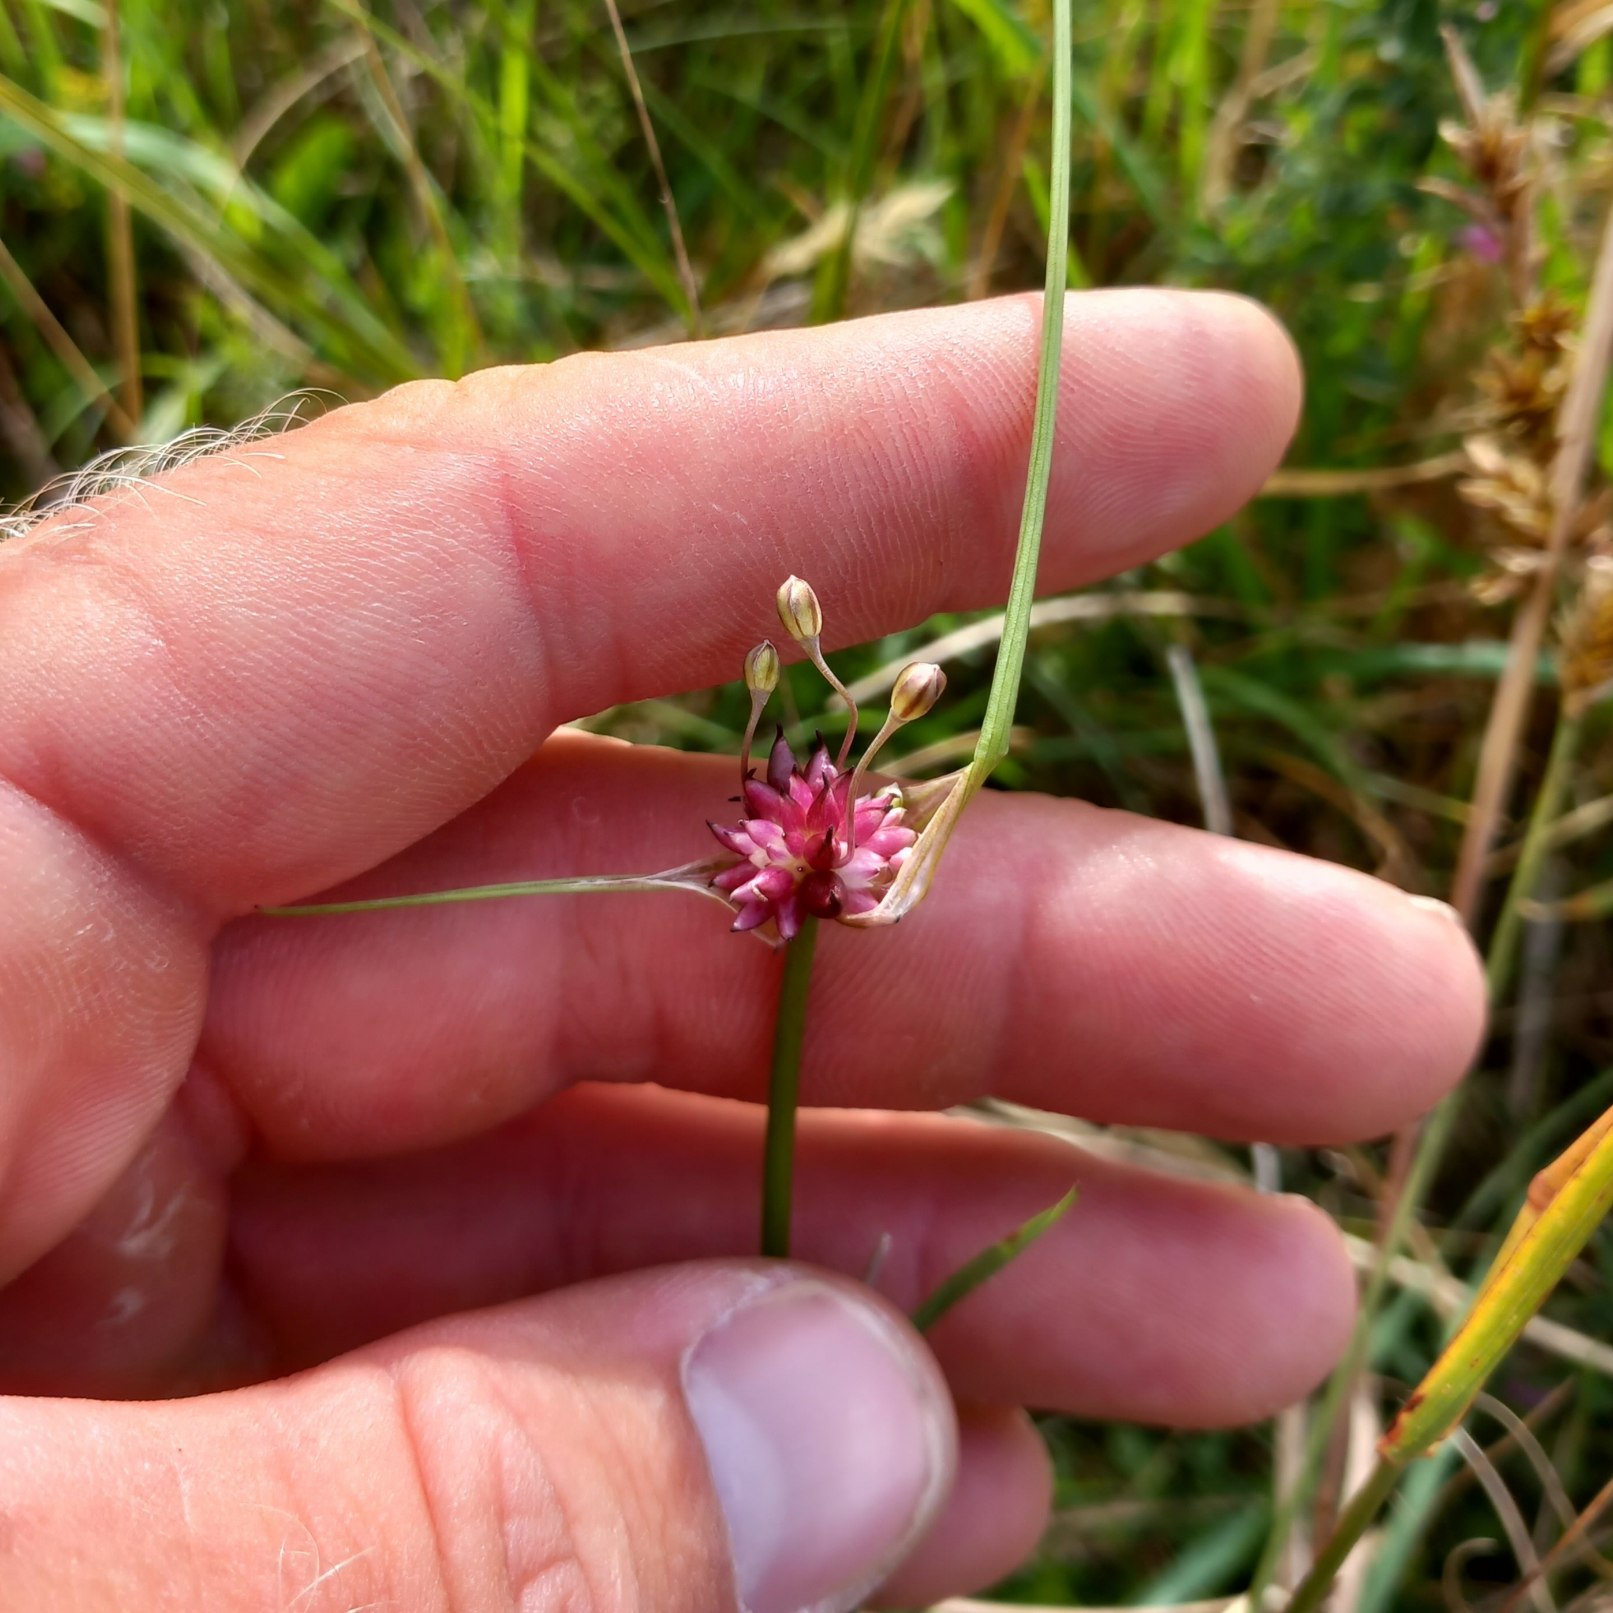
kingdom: Plantae
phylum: Tracheophyta
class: Liliopsida
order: Asparagales
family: Amaryllidaceae
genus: Allium
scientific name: Allium oleraceum
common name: Vild løg
